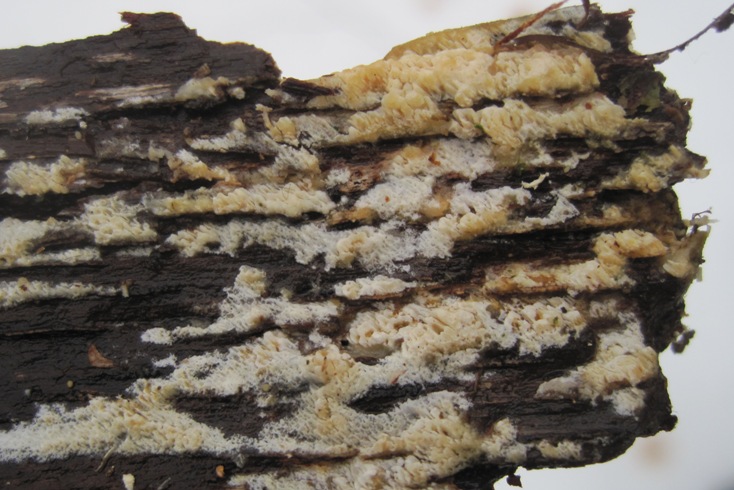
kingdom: Fungi
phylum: Basidiomycota
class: Agaricomycetes
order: Hymenochaetales
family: Schizoporaceae
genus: Schizopora
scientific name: Schizopora paradoxa
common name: hvid tandsvamp
